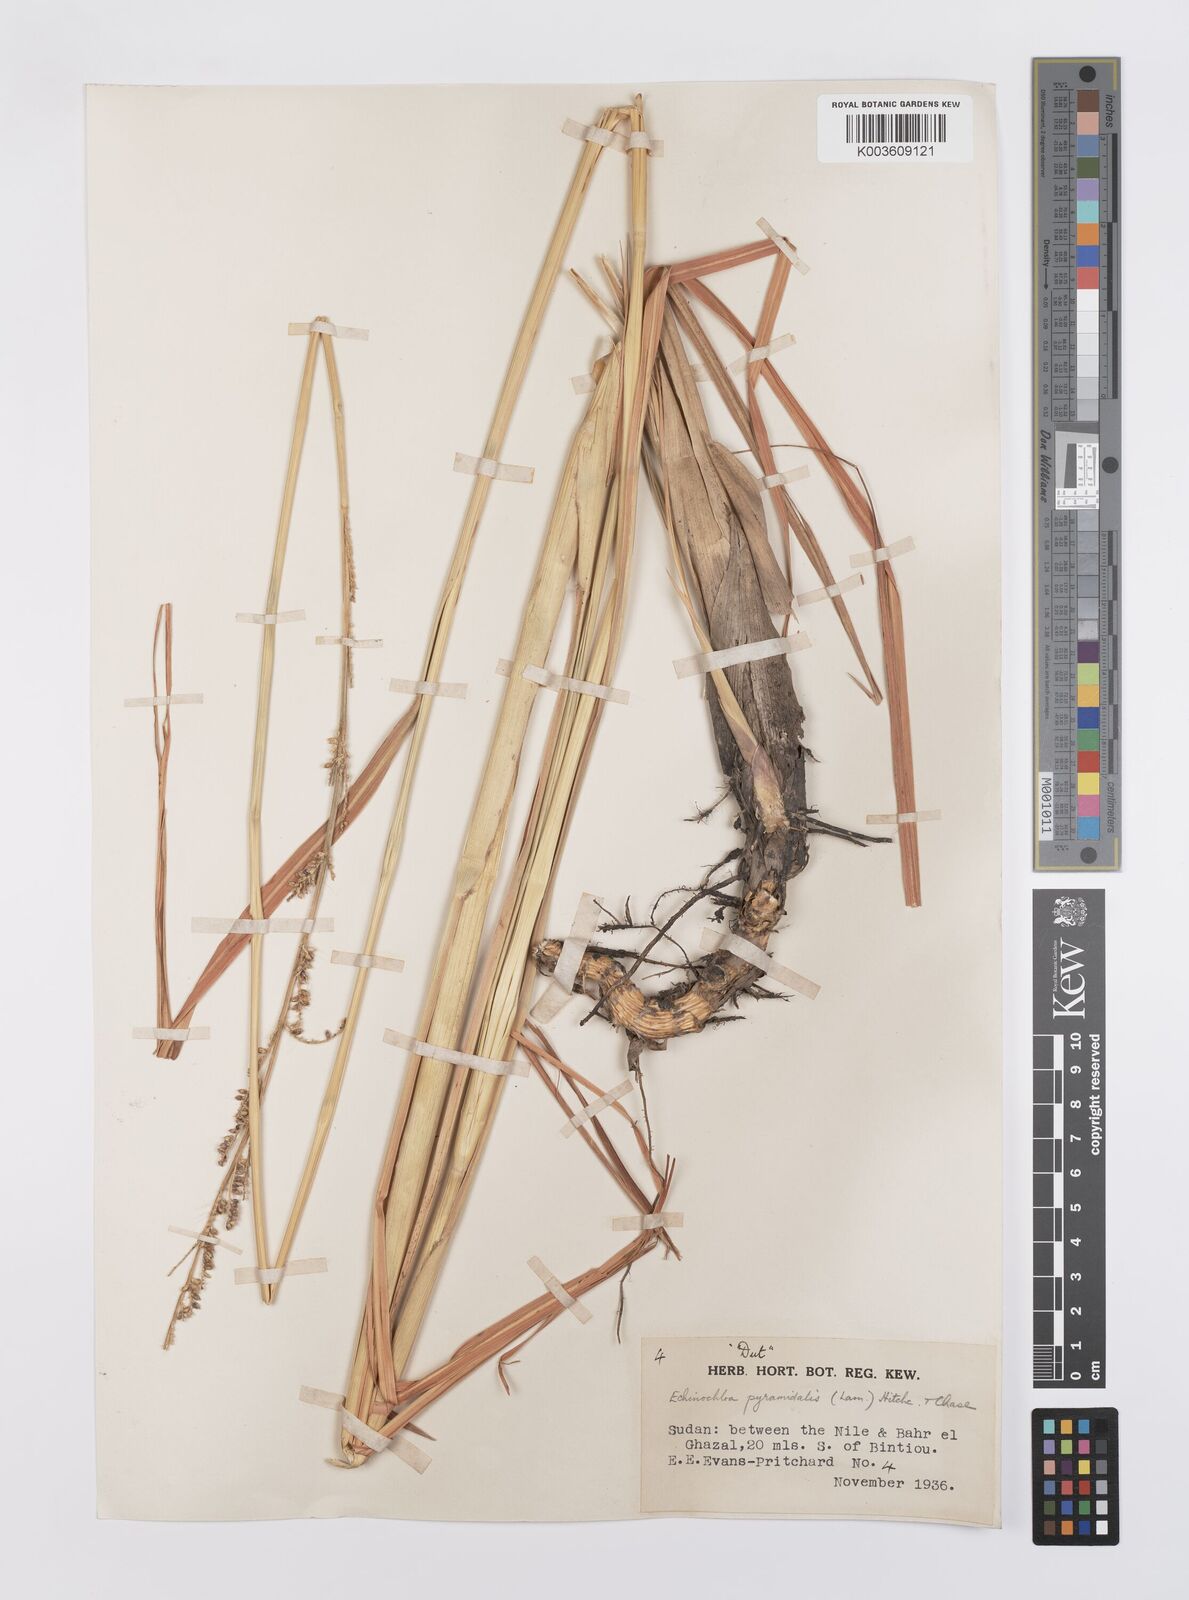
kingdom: Plantae
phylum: Tracheophyta
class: Liliopsida
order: Poales
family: Poaceae
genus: Echinochloa
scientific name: Echinochloa pyramidalis
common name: Antelope grass
